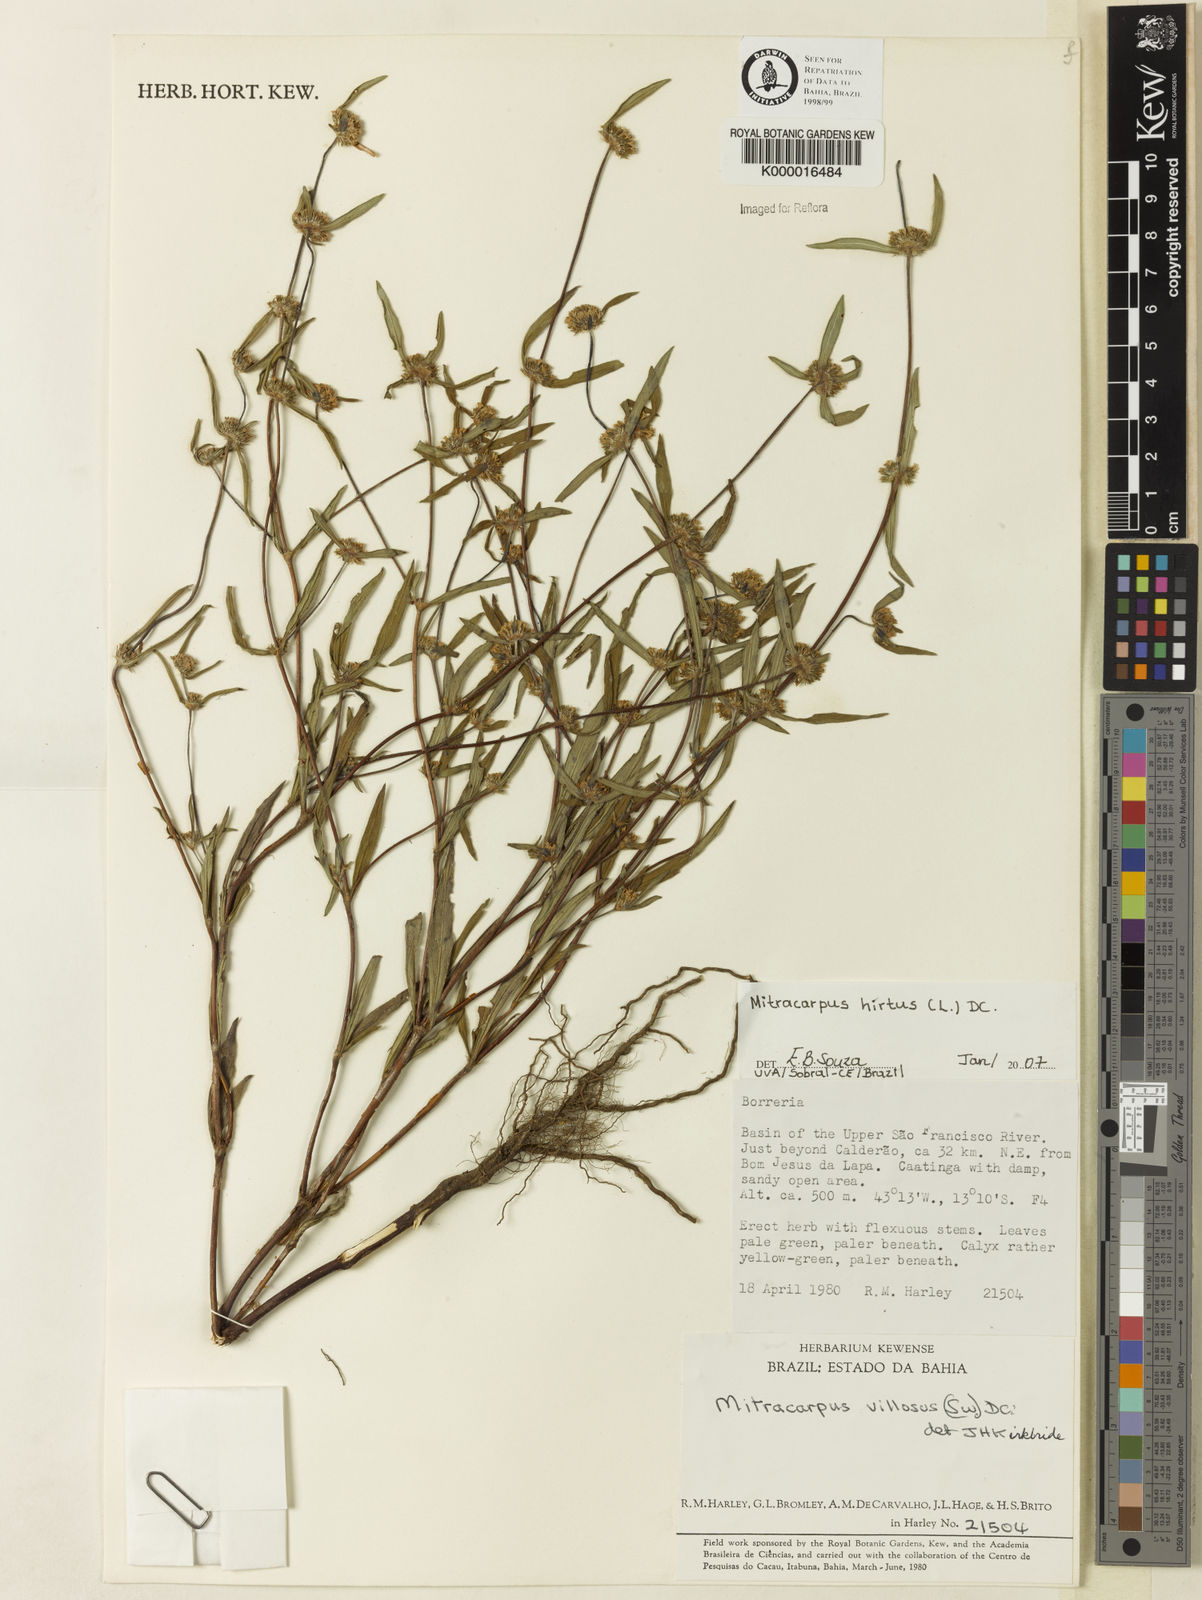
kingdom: Plantae
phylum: Tracheophyta
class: Magnoliopsida
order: Gentianales
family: Rubiaceae
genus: Mitracarpus
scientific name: Mitracarpus hirtus
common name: Tropical girdlepod
